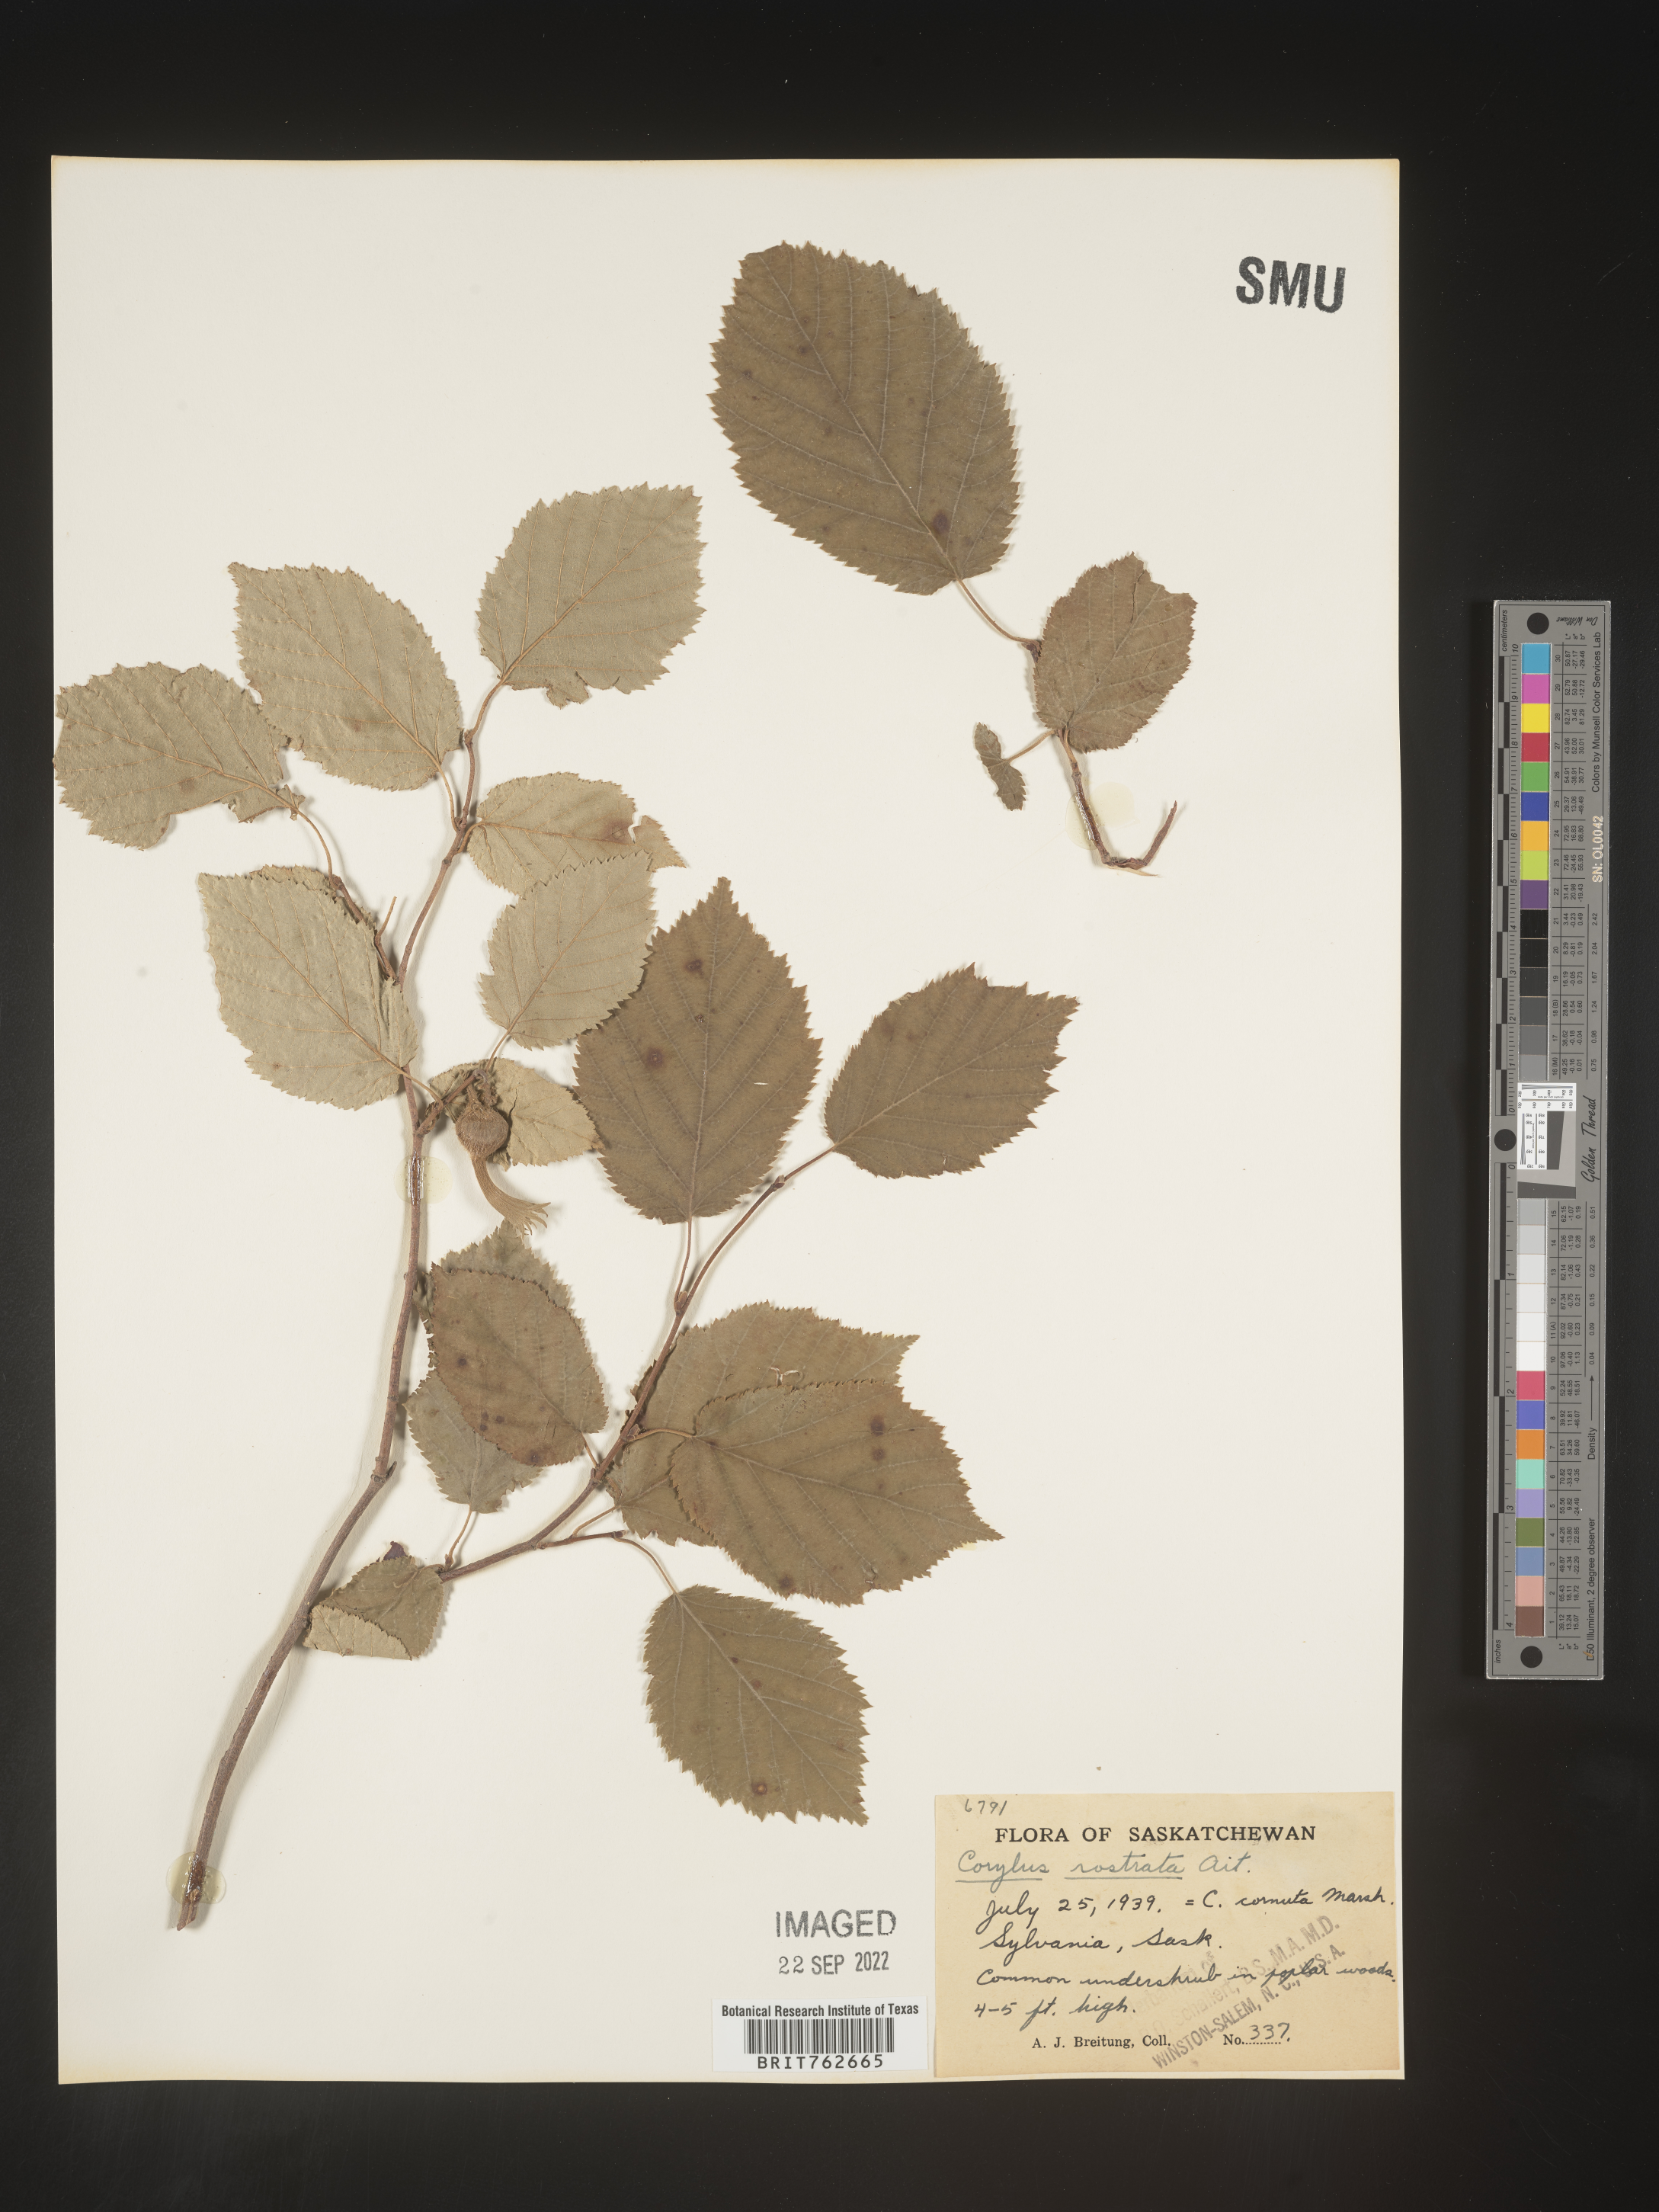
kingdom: Plantae
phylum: Tracheophyta
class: Magnoliopsida
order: Fagales
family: Betulaceae
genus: Corylus
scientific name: Corylus cornuta
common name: Beaked hazel
